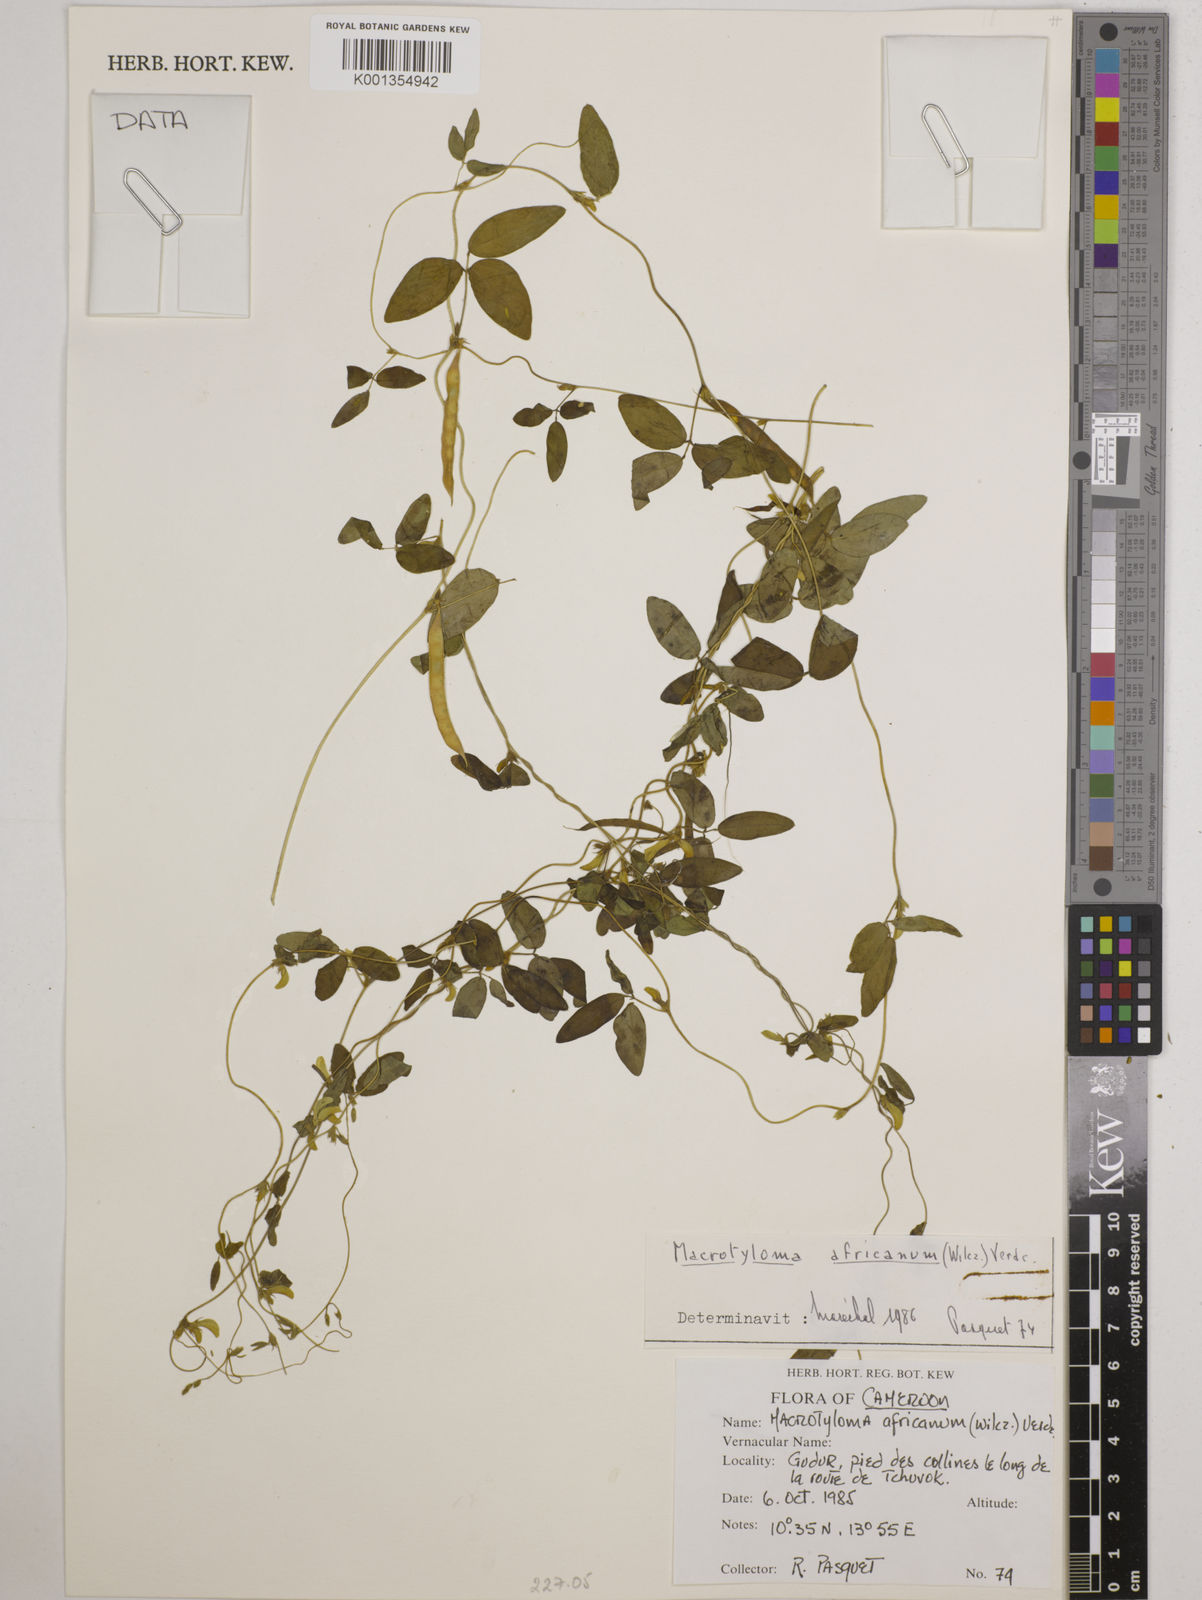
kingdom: Plantae
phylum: Tracheophyta
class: Magnoliopsida
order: Fabales
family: Fabaceae
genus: Macrotyloma
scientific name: Macrotyloma africanum
